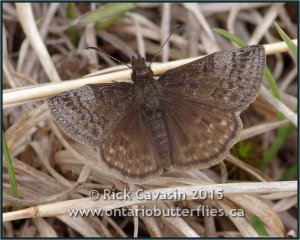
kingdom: Animalia
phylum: Arthropoda
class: Insecta
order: Lepidoptera
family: Hesperiidae
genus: Erynnis
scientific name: Erynnis icelus
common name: Dreamy Duskywing
